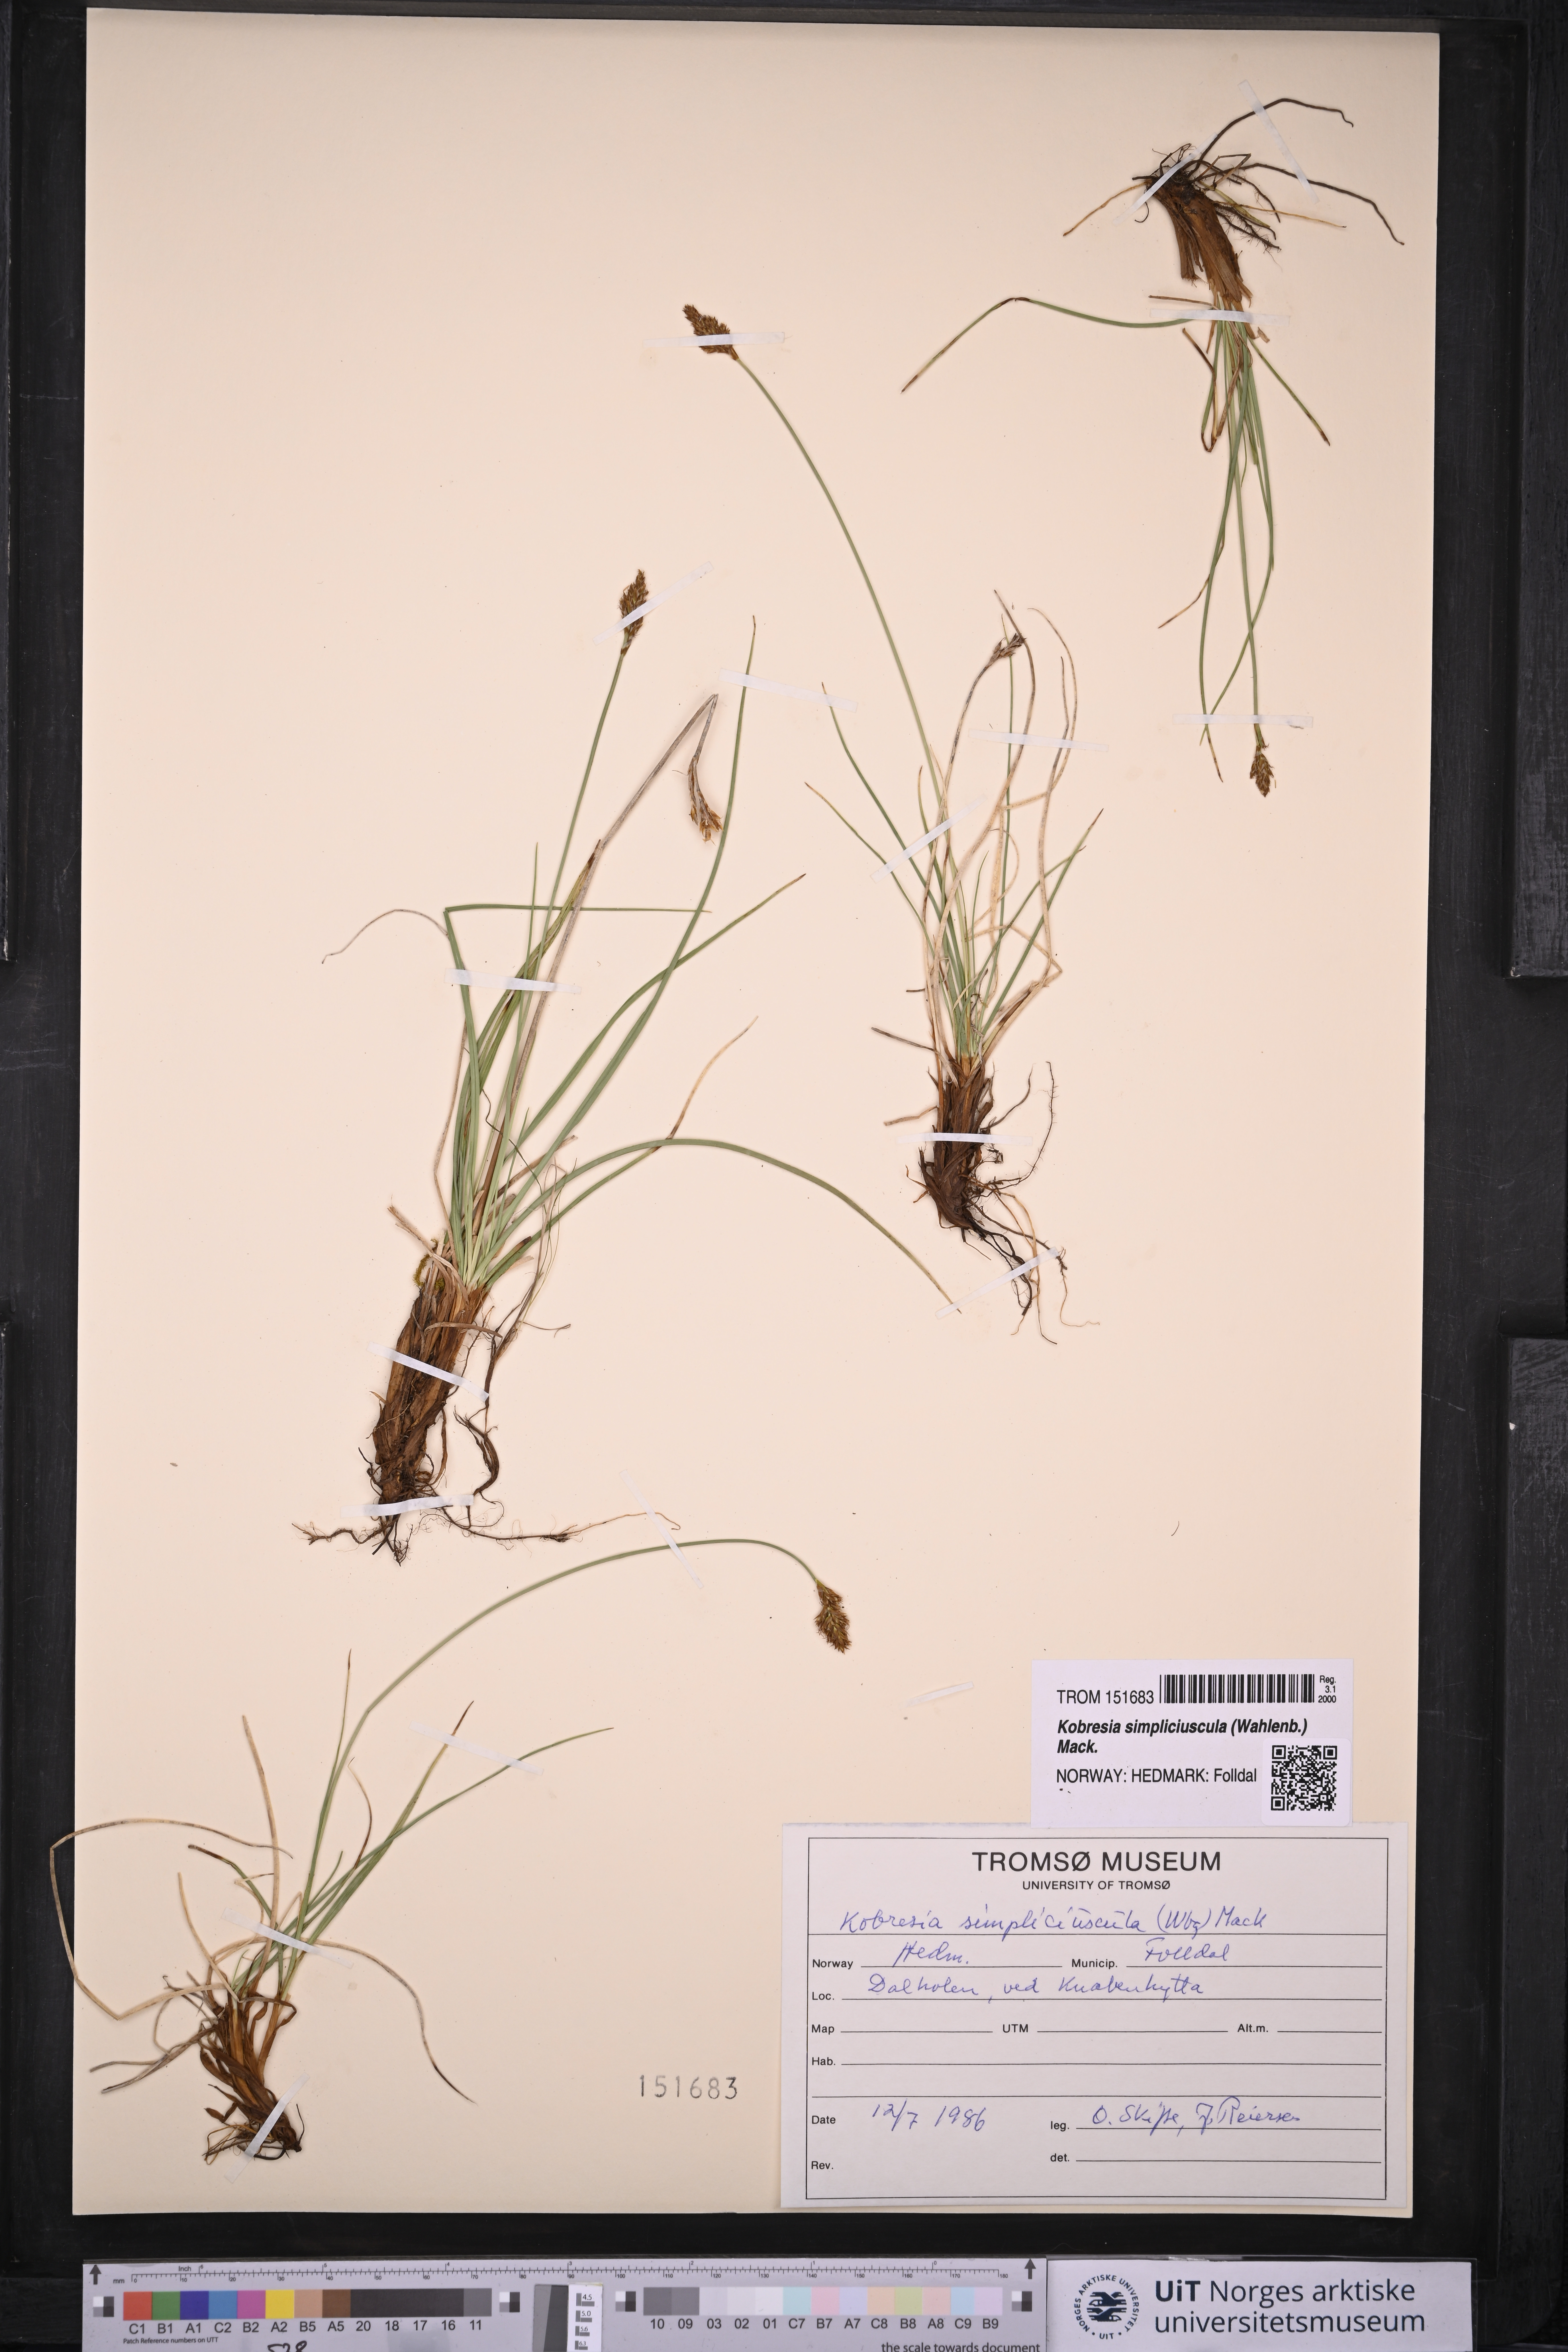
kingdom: Plantae
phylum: Tracheophyta
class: Liliopsida
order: Poales
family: Cyperaceae
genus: Carex
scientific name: Carex simpliciuscula
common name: Simple bog sedge
